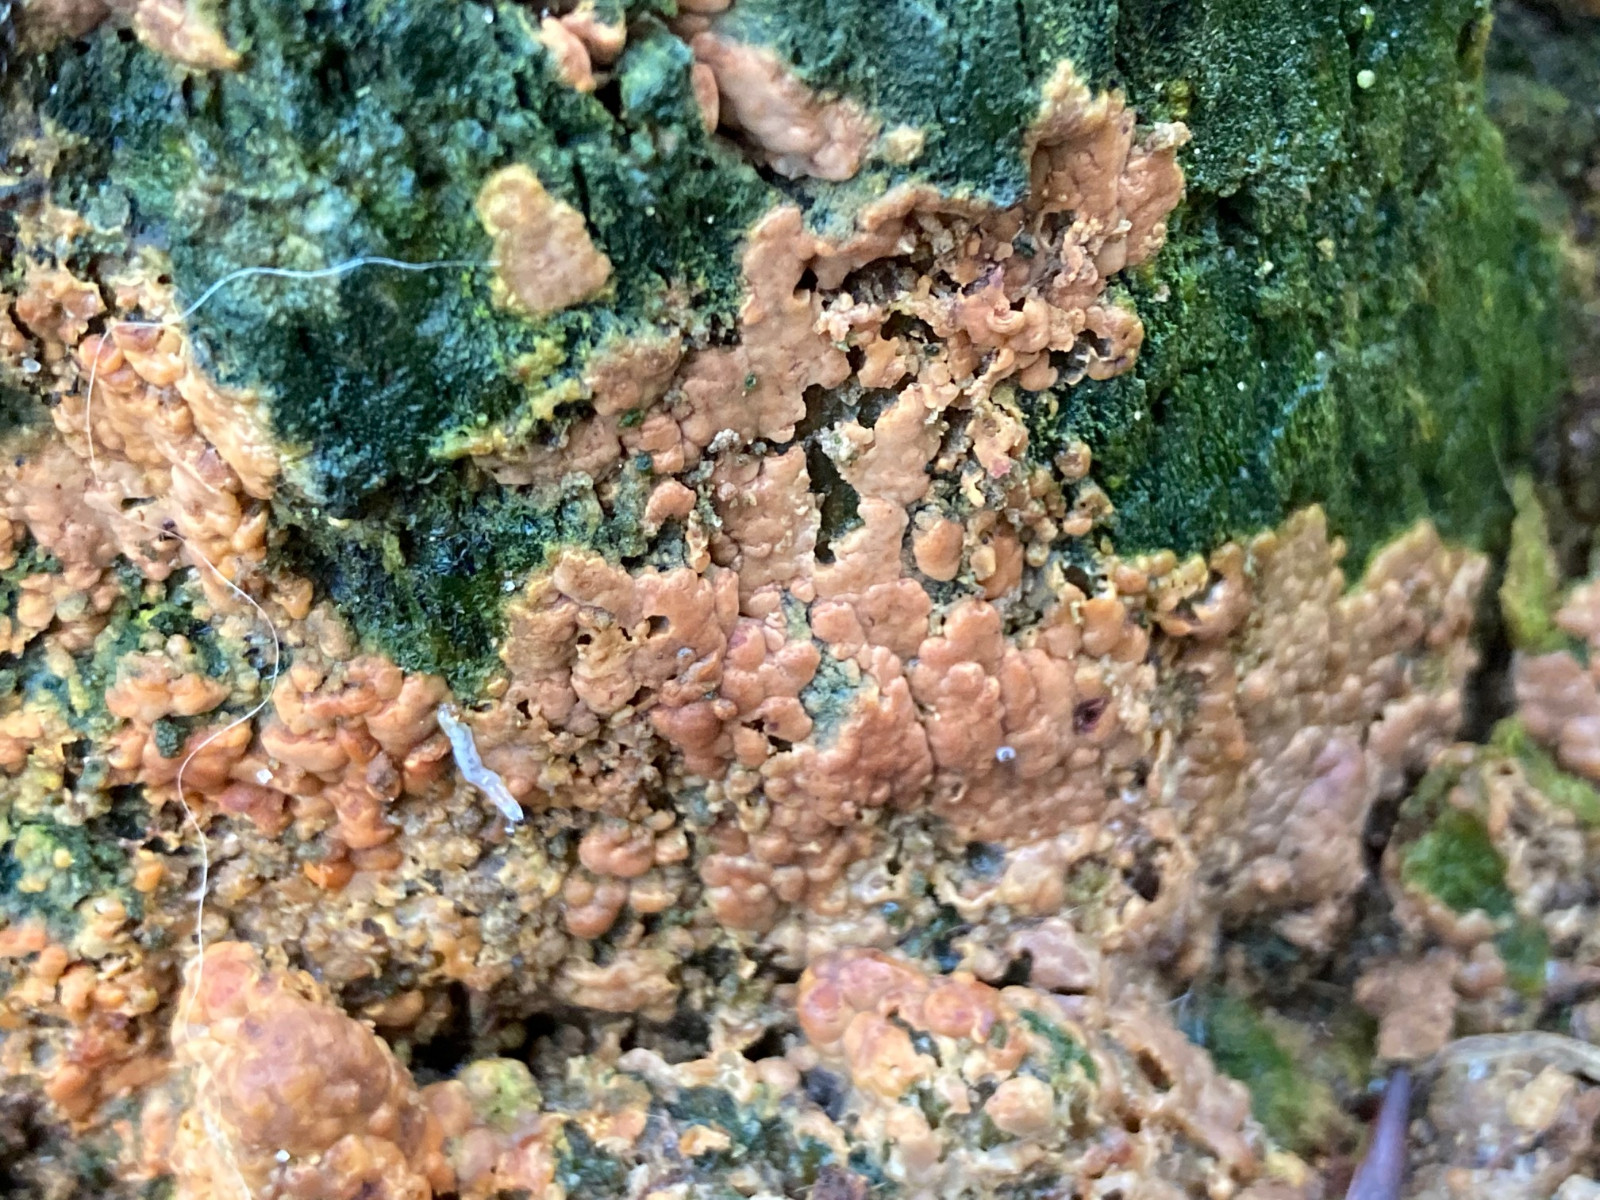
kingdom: Fungi
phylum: Basidiomycota
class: Agaricomycetes
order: Russulales
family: Peniophoraceae
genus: Gloiothele
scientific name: Gloiothele lactescens
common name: bitter olieskind
